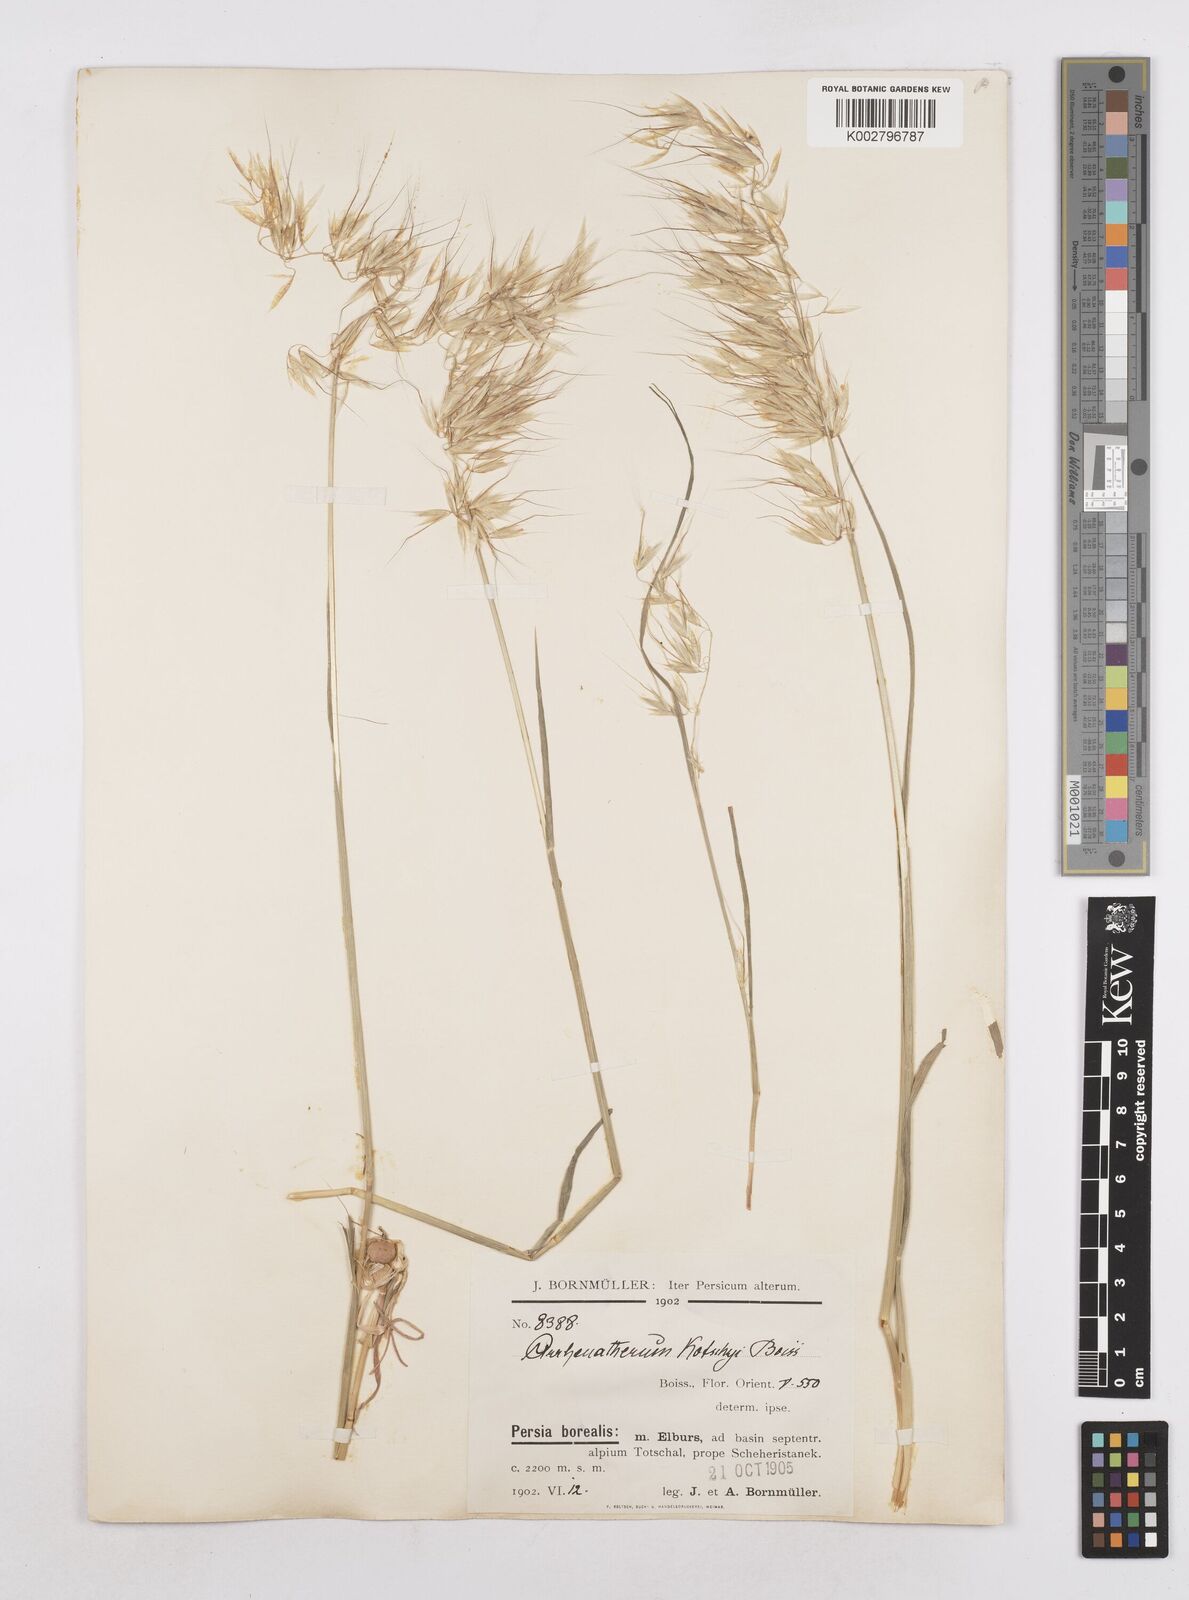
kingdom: Plantae
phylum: Tracheophyta
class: Liliopsida
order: Poales
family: Poaceae
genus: Arrhenatherum
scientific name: Arrhenatherum kotschyi
